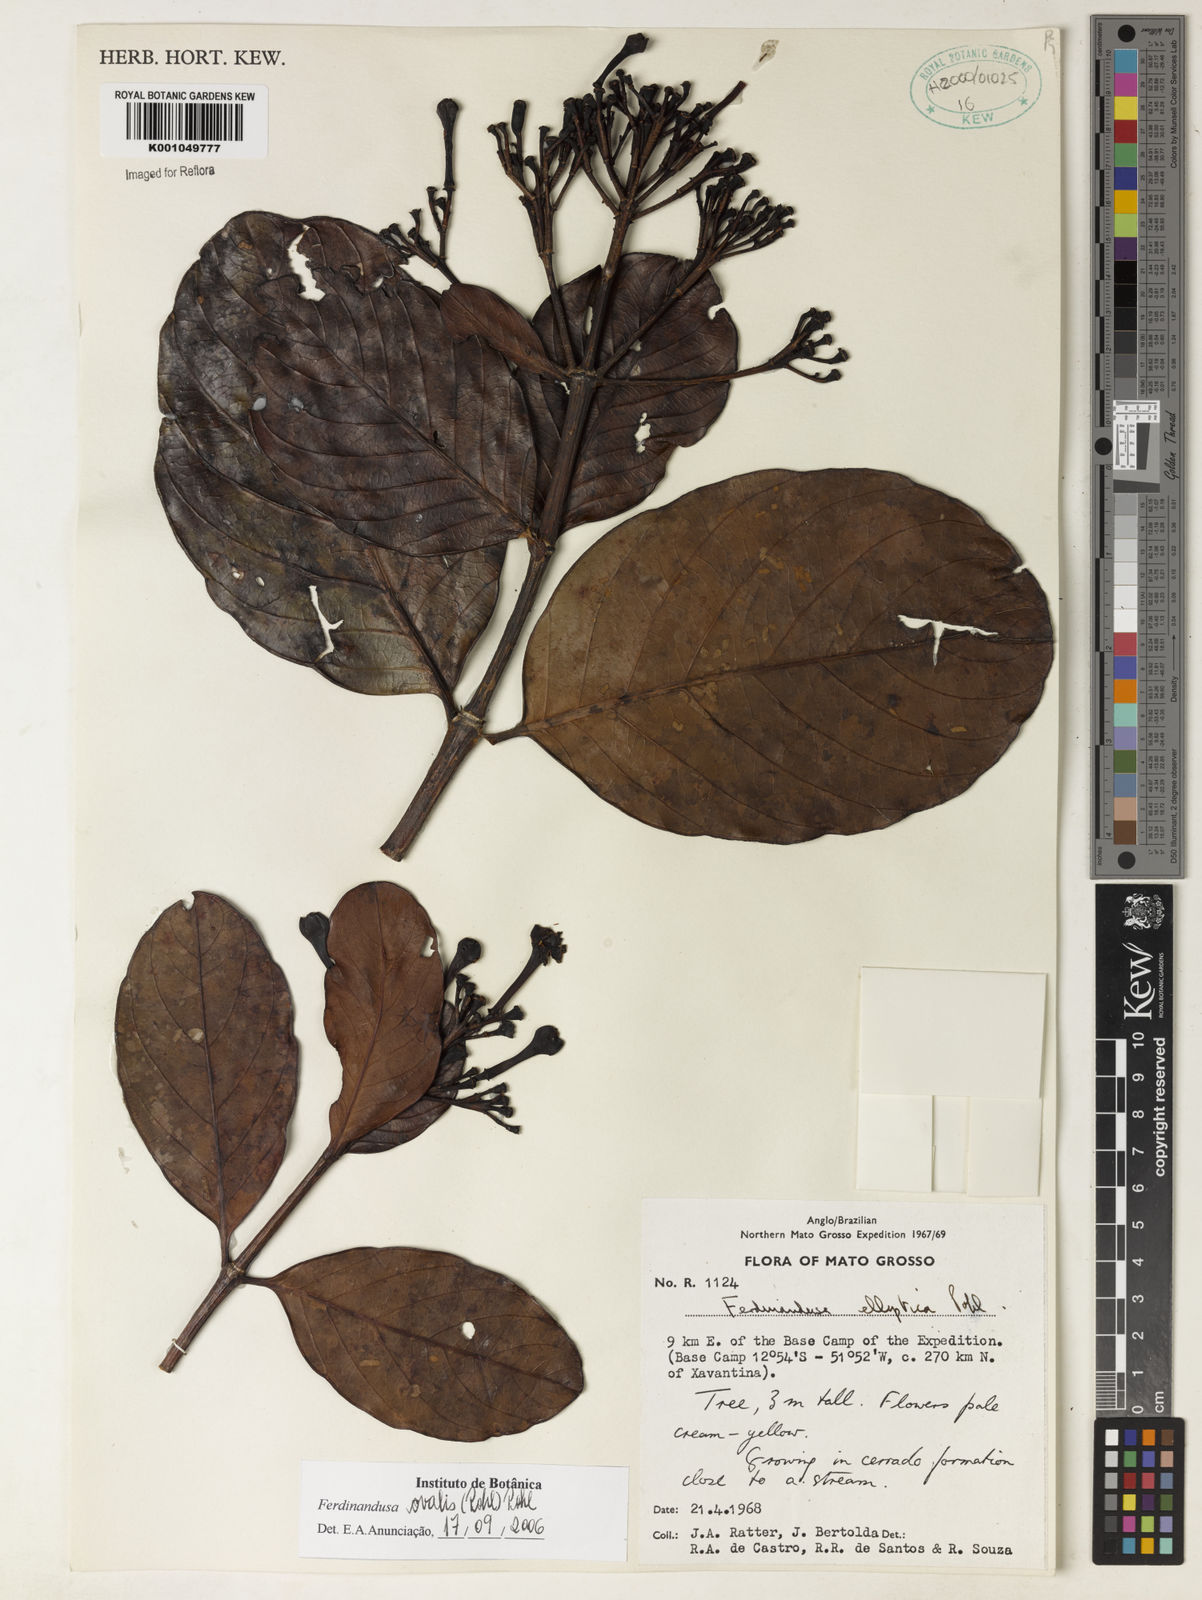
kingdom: Plantae
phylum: Tracheophyta
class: Magnoliopsida
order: Gentianales
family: Rubiaceae
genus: Ferdinandusa
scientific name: Ferdinandusa elliptica
